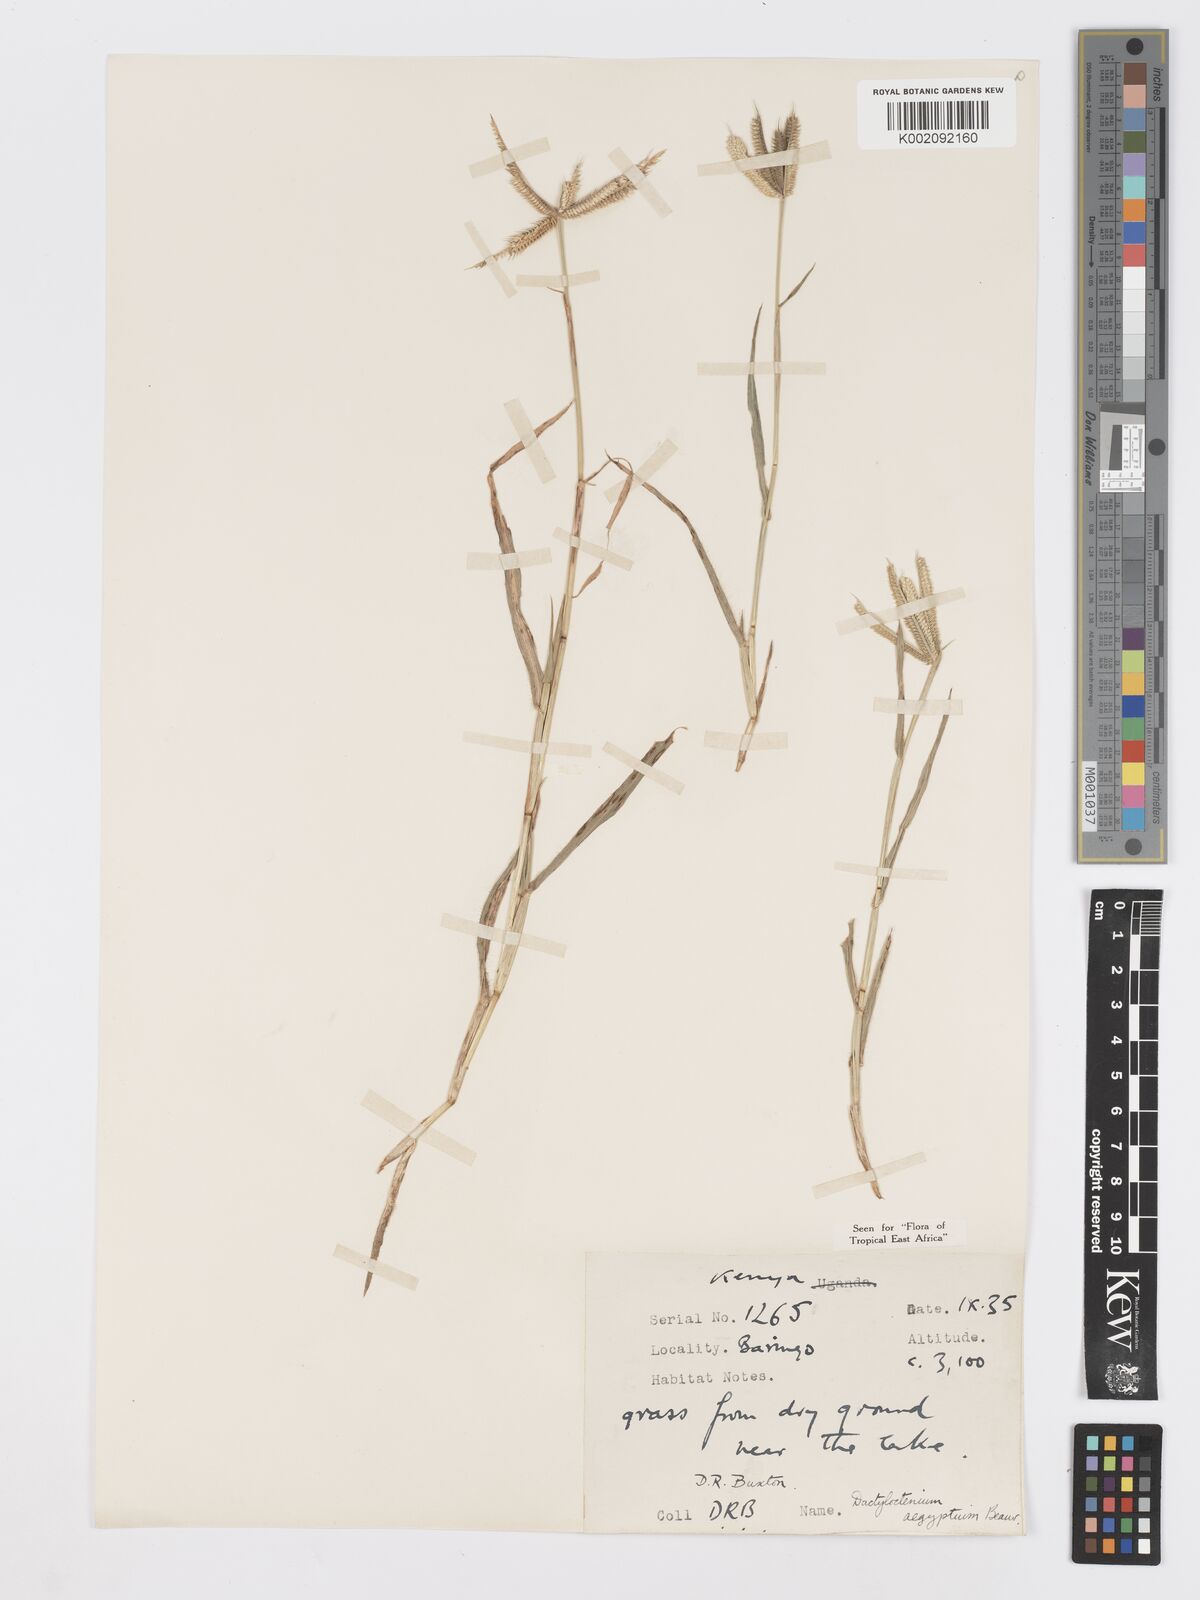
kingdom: Plantae
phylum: Tracheophyta
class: Liliopsida
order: Poales
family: Poaceae
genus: Dactyloctenium
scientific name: Dactyloctenium aegyptium
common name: Egyptian grass
